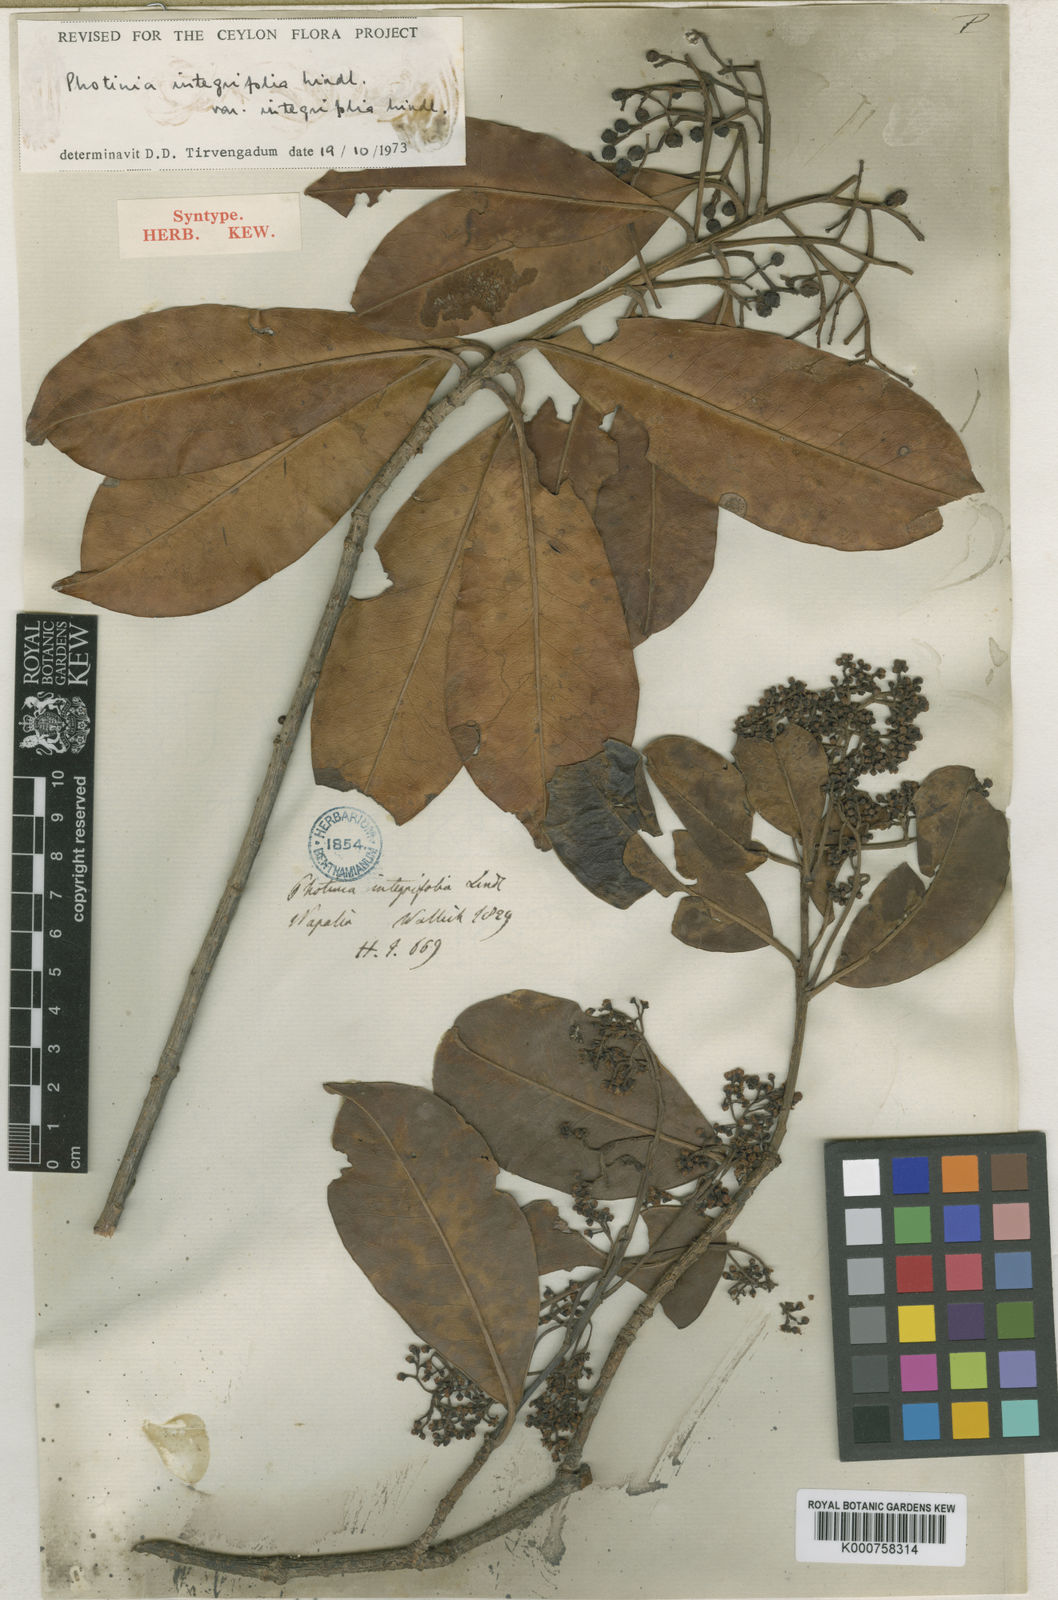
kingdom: Plantae
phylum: Tracheophyta
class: Magnoliopsida
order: Rosales
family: Rosaceae
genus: Photinia
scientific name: Photinia integrifolia
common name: Himalayan chokeberry
